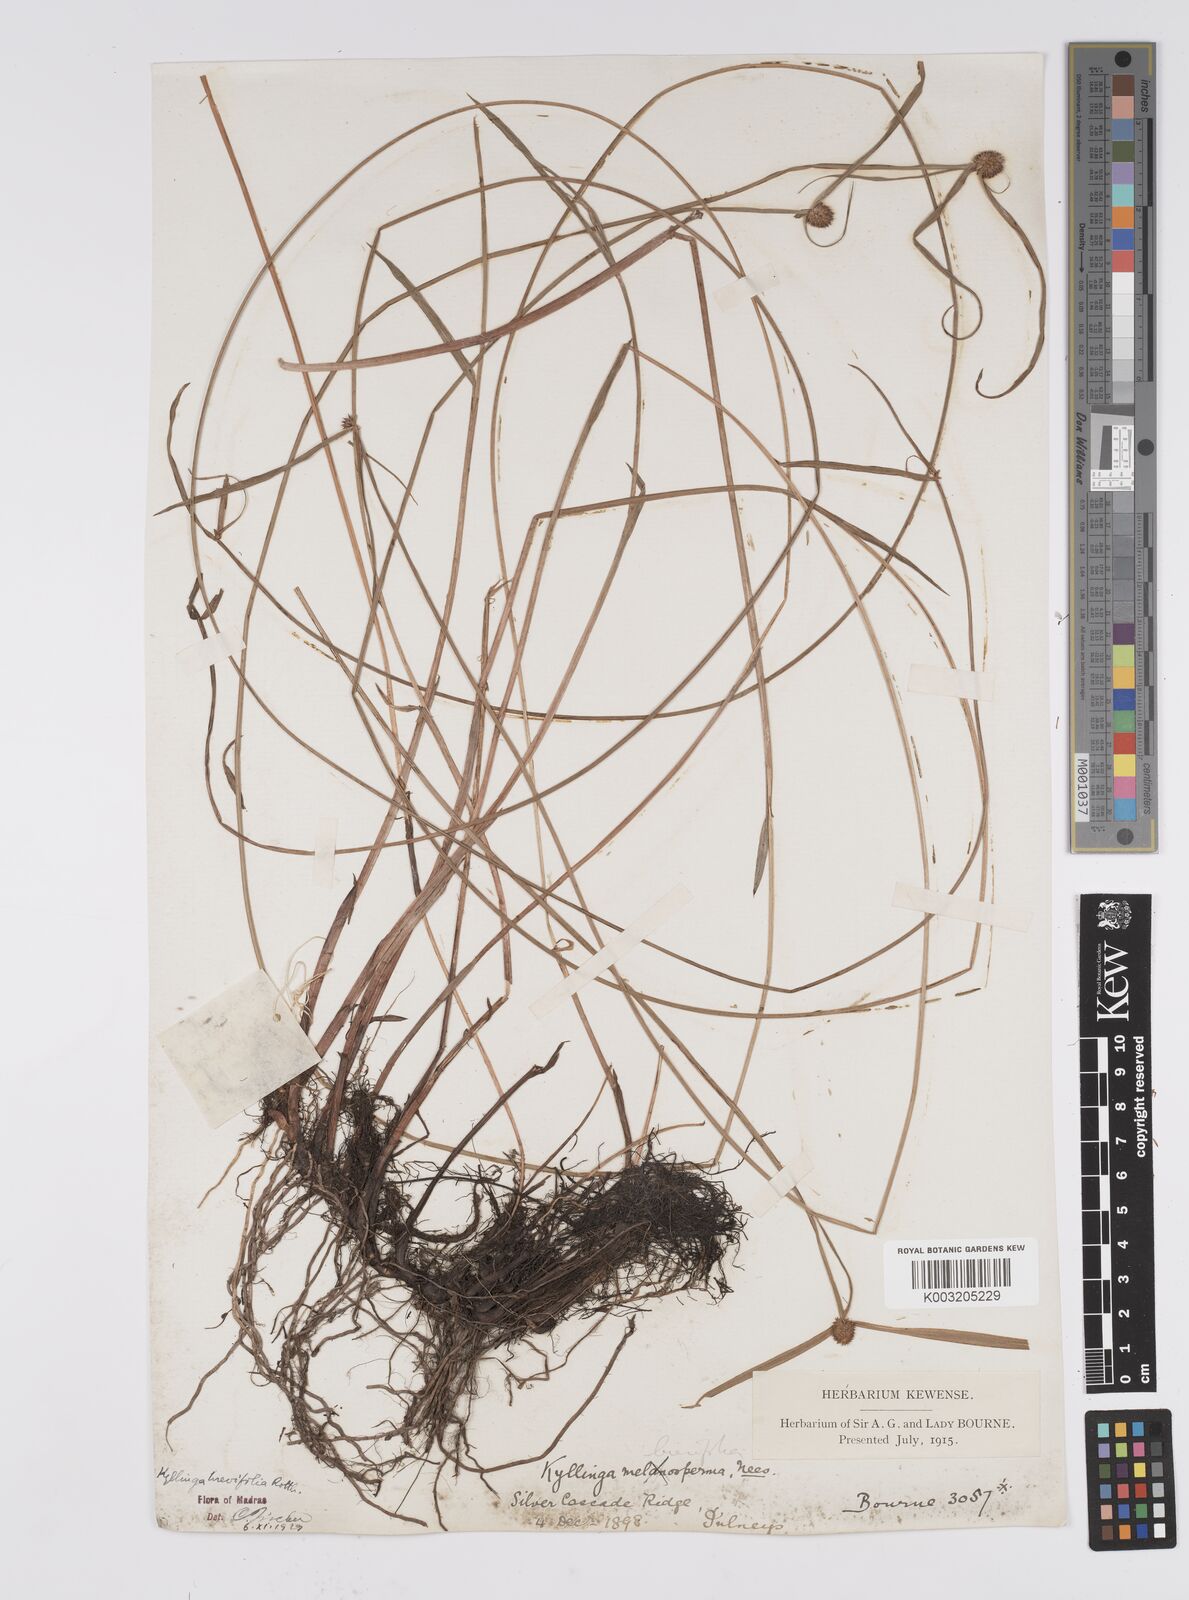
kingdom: Plantae
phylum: Tracheophyta
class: Liliopsida
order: Poales
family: Cyperaceae
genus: Cyperus
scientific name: Cyperus melanospermus
